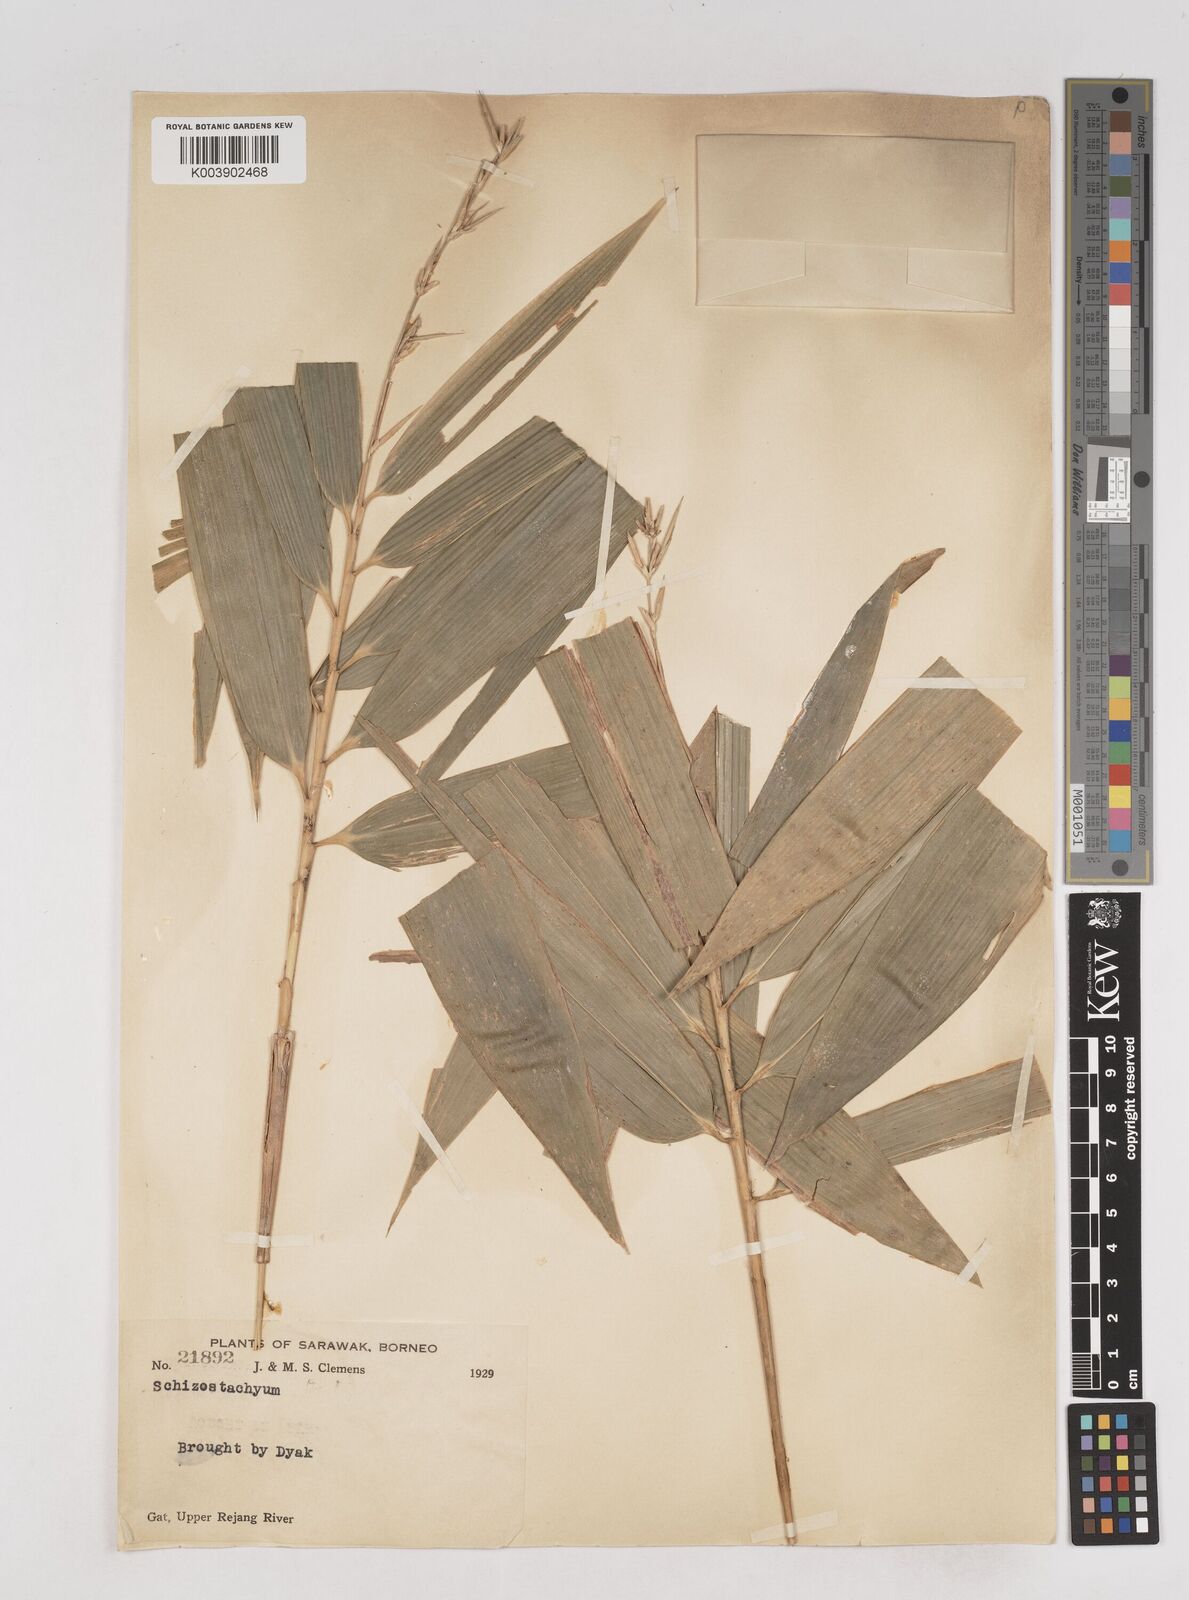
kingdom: Plantae
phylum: Tracheophyta
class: Liliopsida
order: Poales
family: Poaceae
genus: Schizostachyum
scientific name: Schizostachyum
